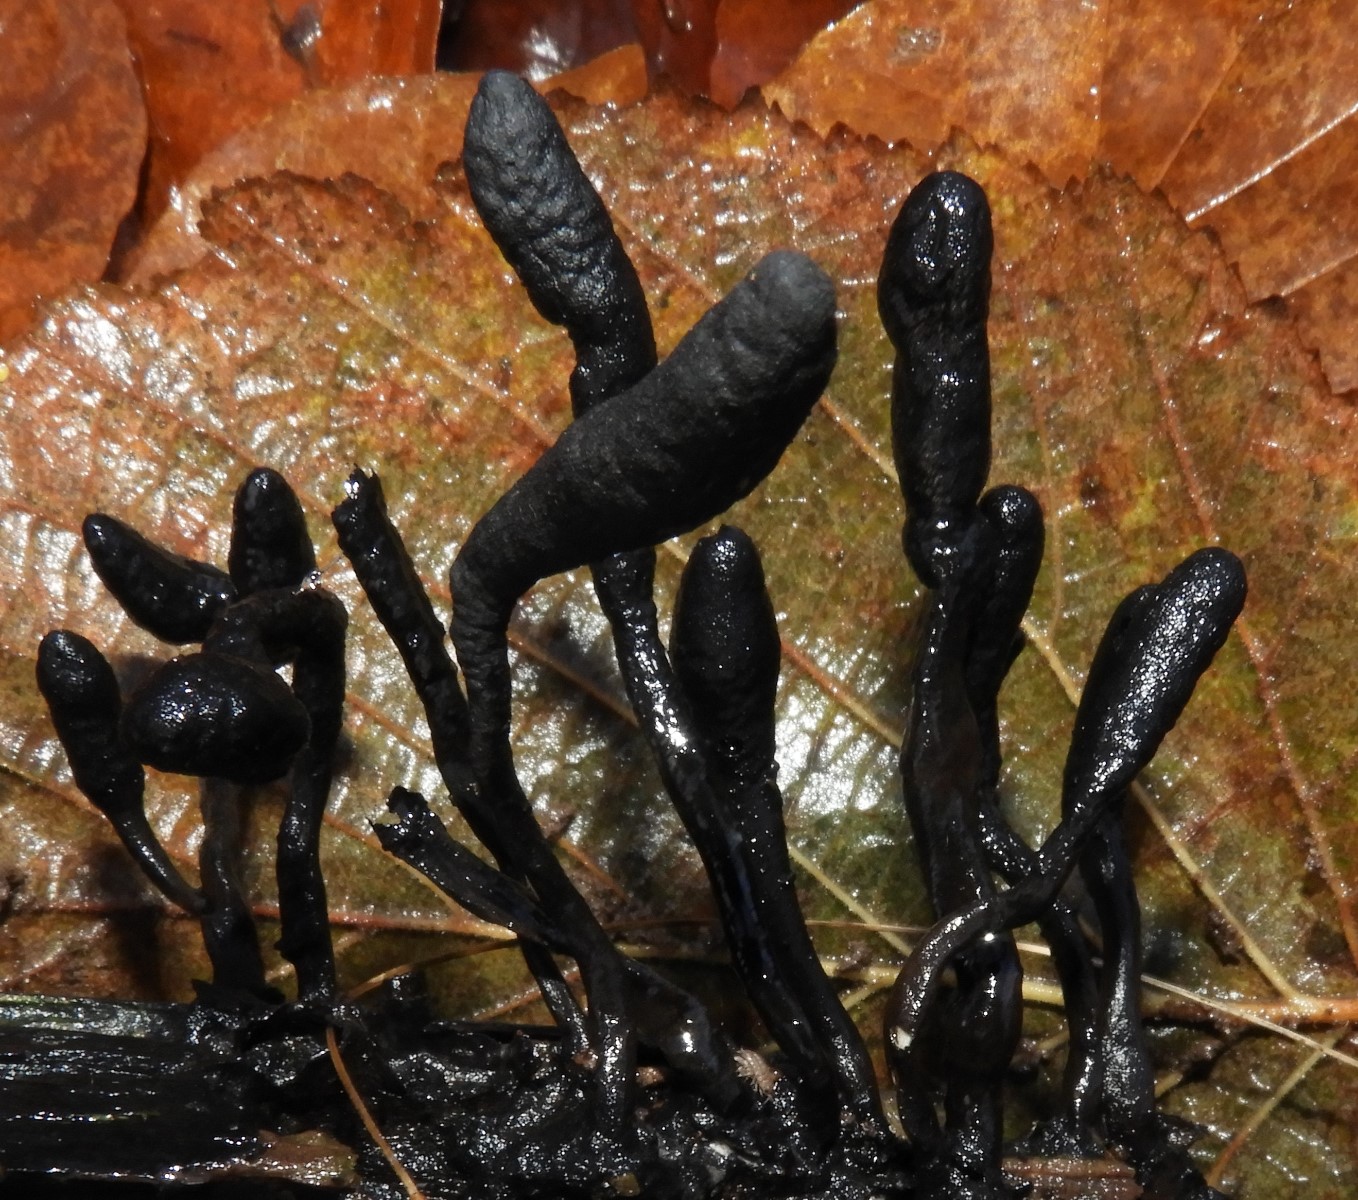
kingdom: Fungi
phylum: Ascomycota
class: Sordariomycetes
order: Xylariales
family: Xylariaceae
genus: Xylaria
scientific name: Xylaria longipes
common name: slank stødsvamp
